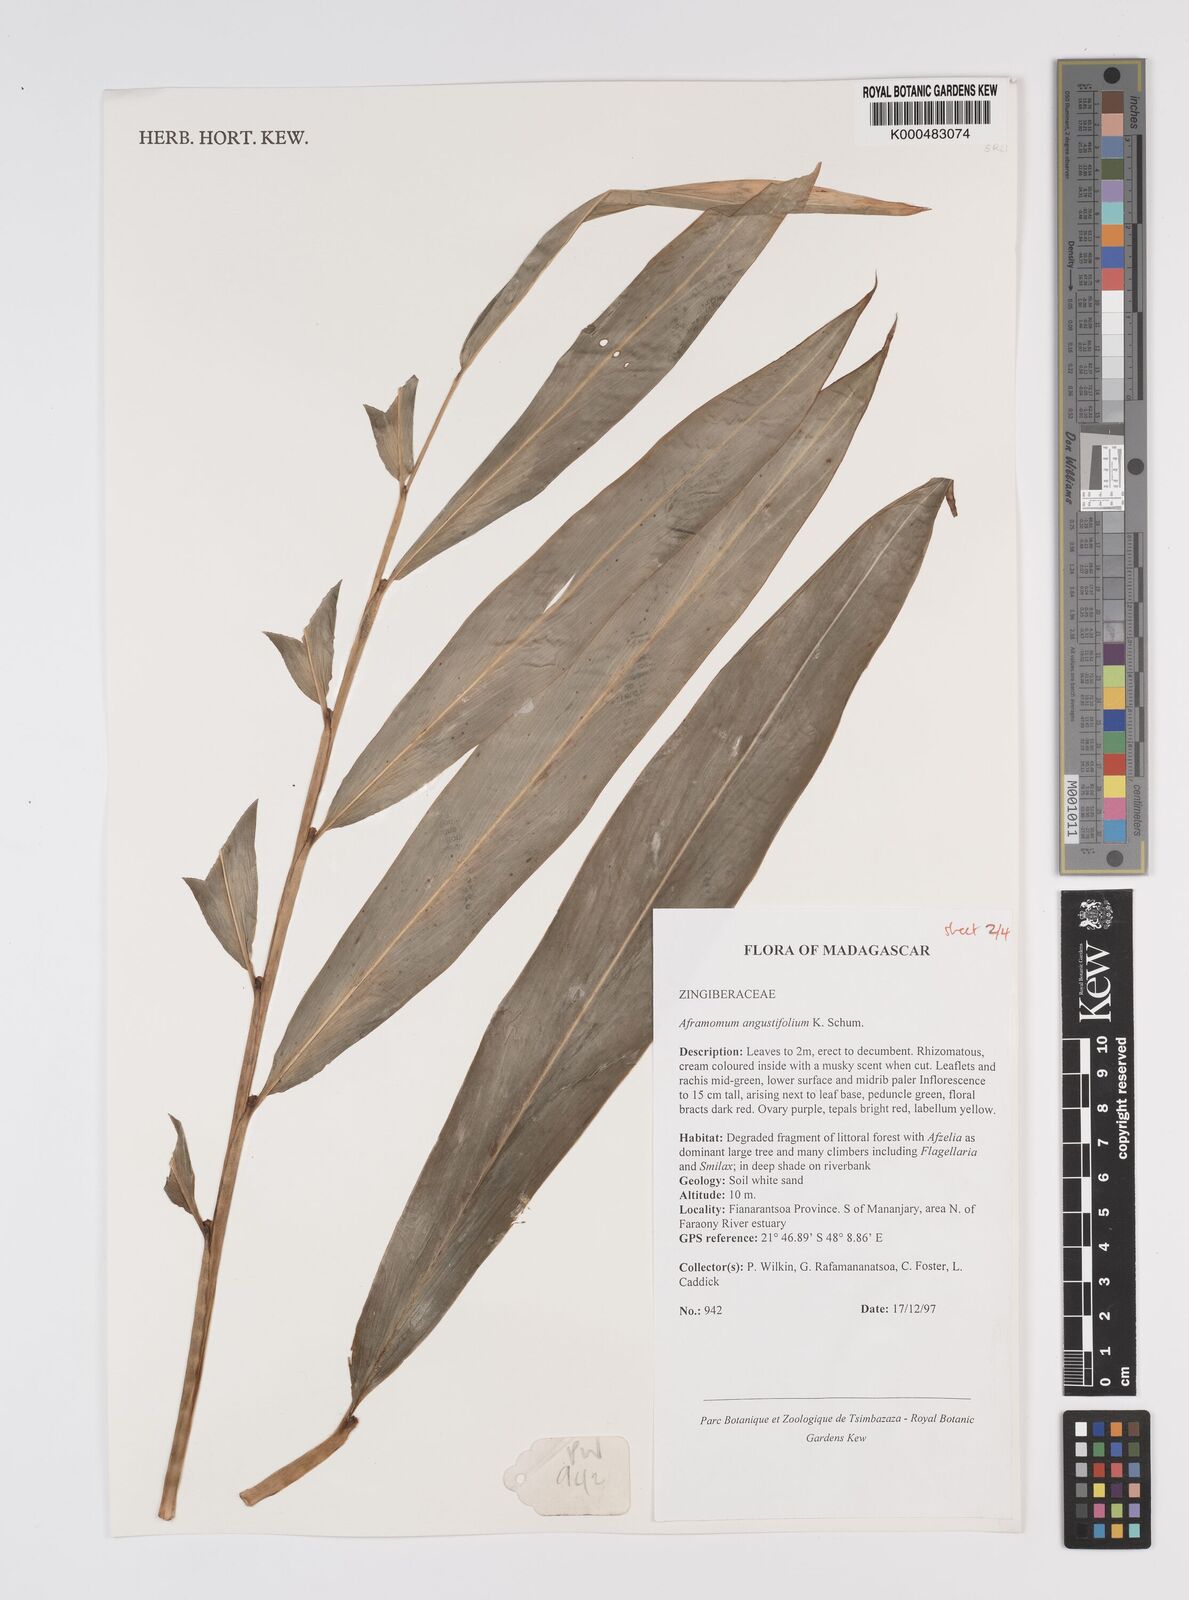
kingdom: Plantae
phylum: Tracheophyta
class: Liliopsida
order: Zingiberales
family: Zingiberaceae
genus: Aframomum
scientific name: Aframomum angustifolium
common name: Guinea grains
